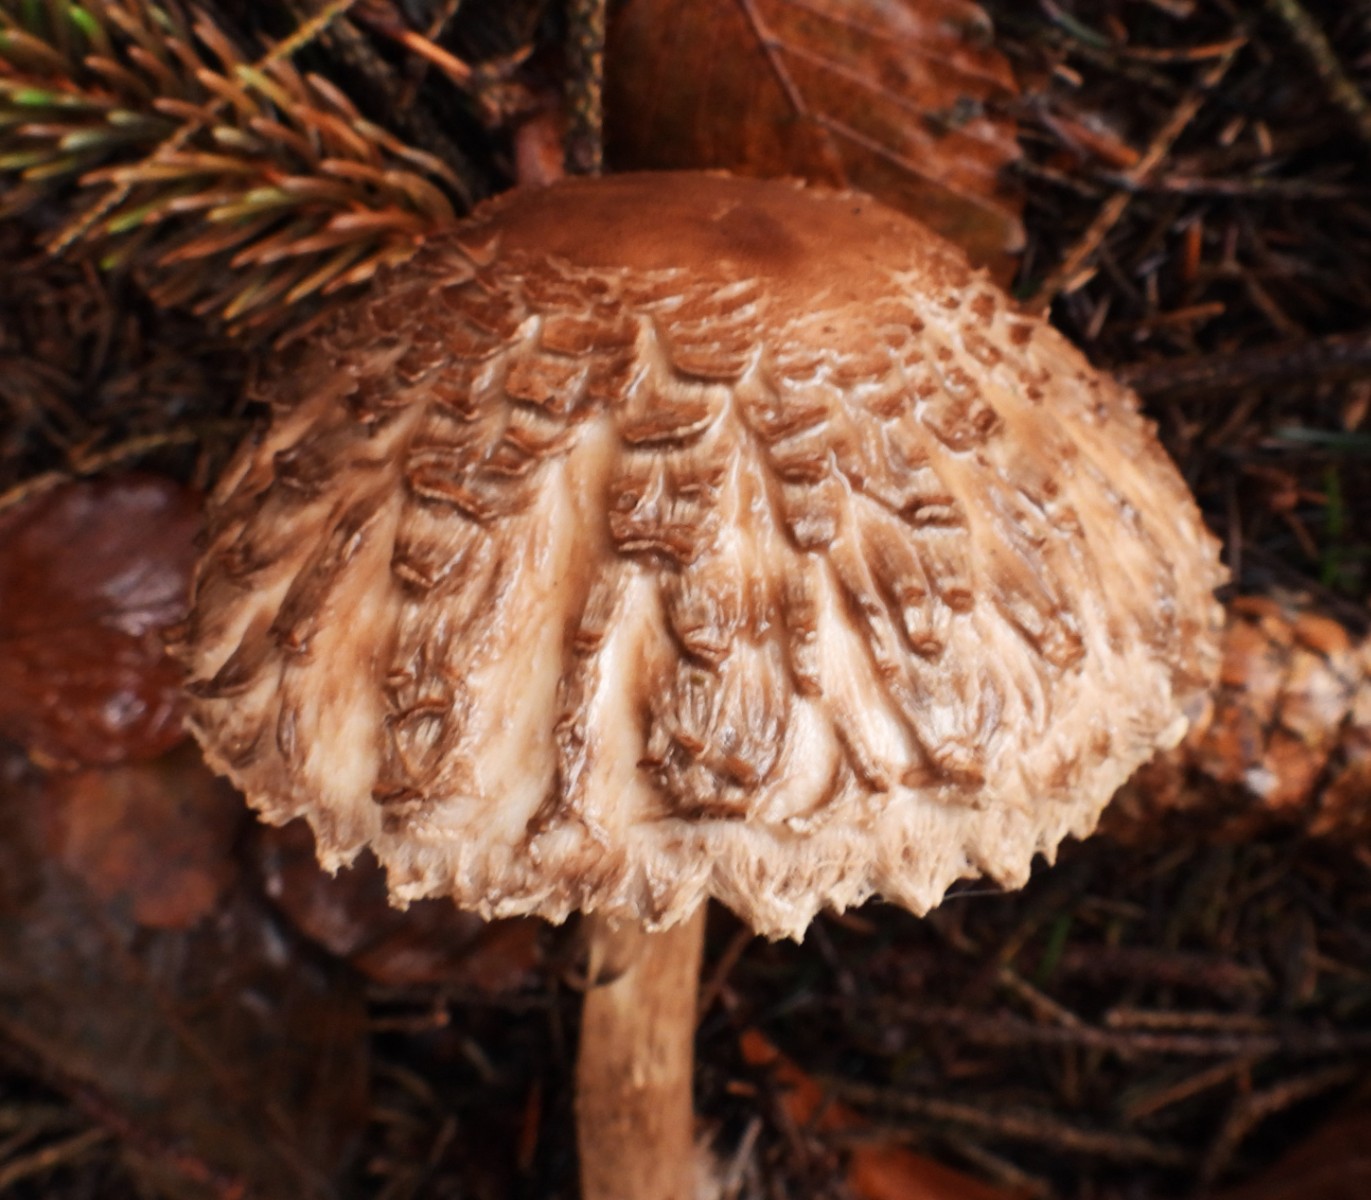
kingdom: Fungi
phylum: Basidiomycota
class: Agaricomycetes
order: Agaricales
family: Agaricaceae
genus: Chlorophyllum
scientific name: Chlorophyllum olivieri
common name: almindelig rabarberhat
